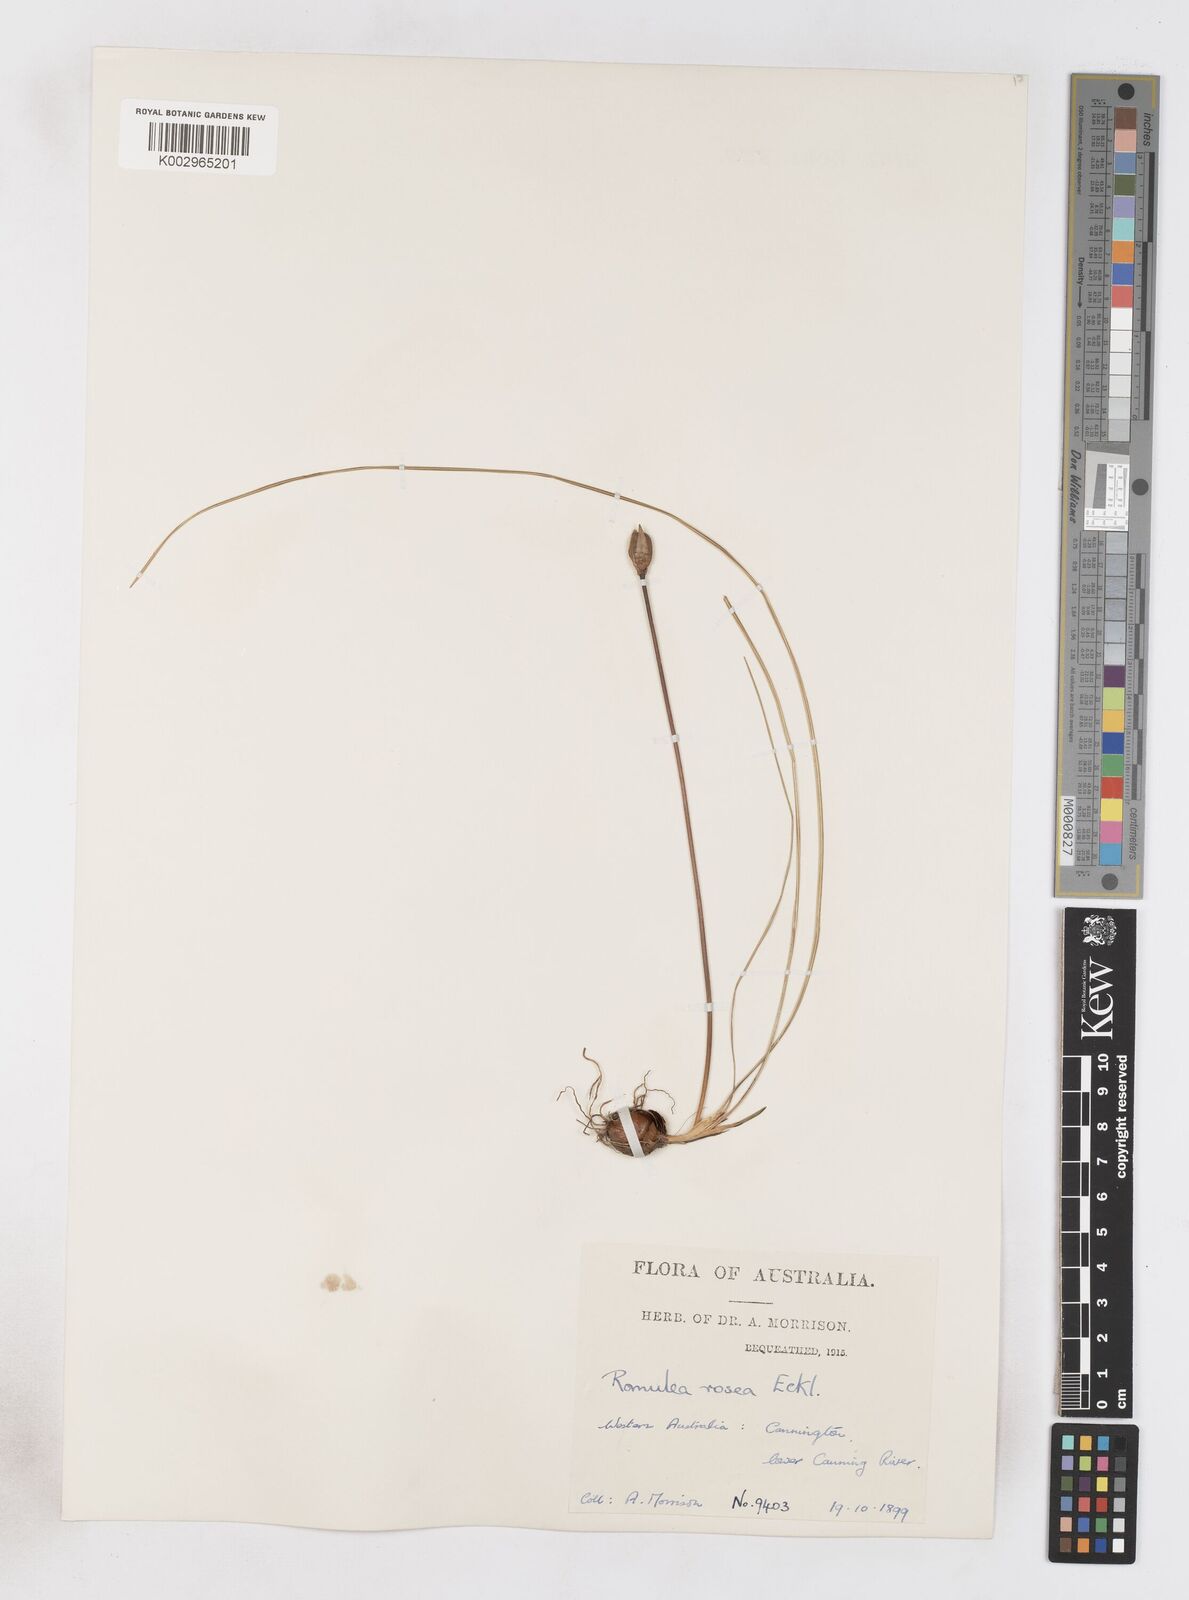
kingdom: Plantae
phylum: Tracheophyta
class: Liliopsida
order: Asparagales
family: Iridaceae
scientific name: Iridaceae
